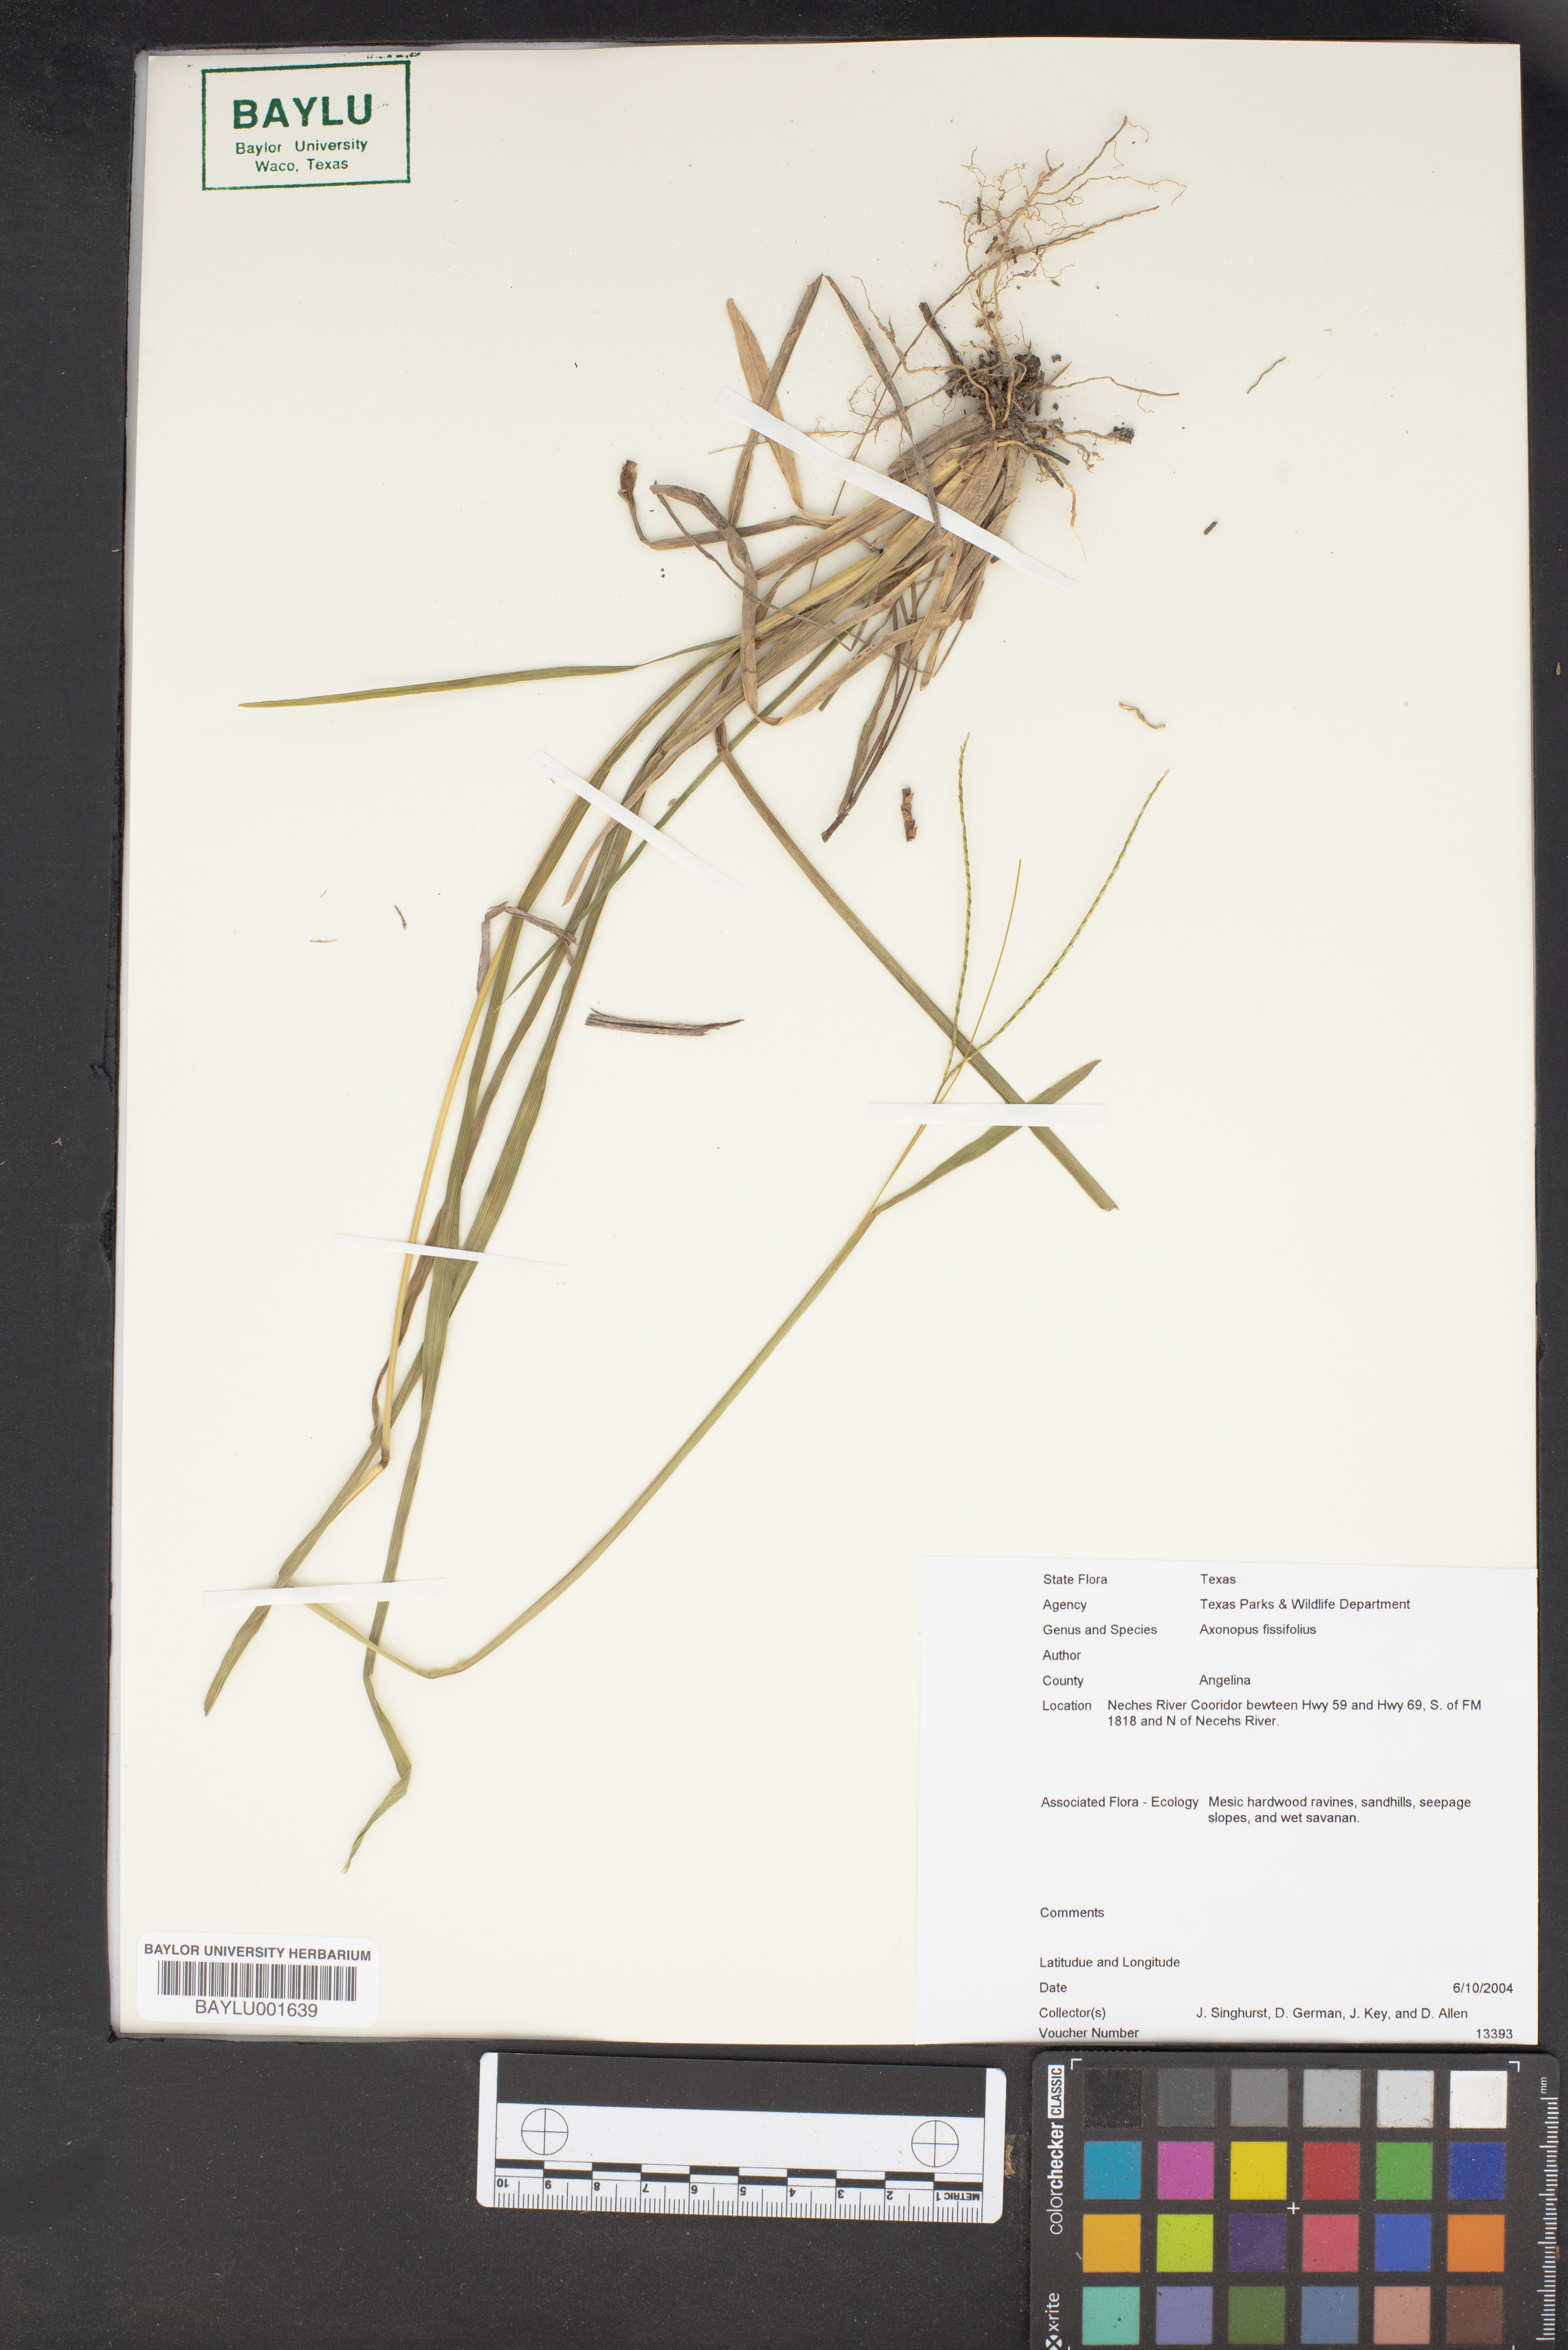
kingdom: Plantae
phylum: Tracheophyta
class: Liliopsida
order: Poales
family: Poaceae
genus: Axonopus
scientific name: Axonopus fissifolius
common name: Common carpetgrass
